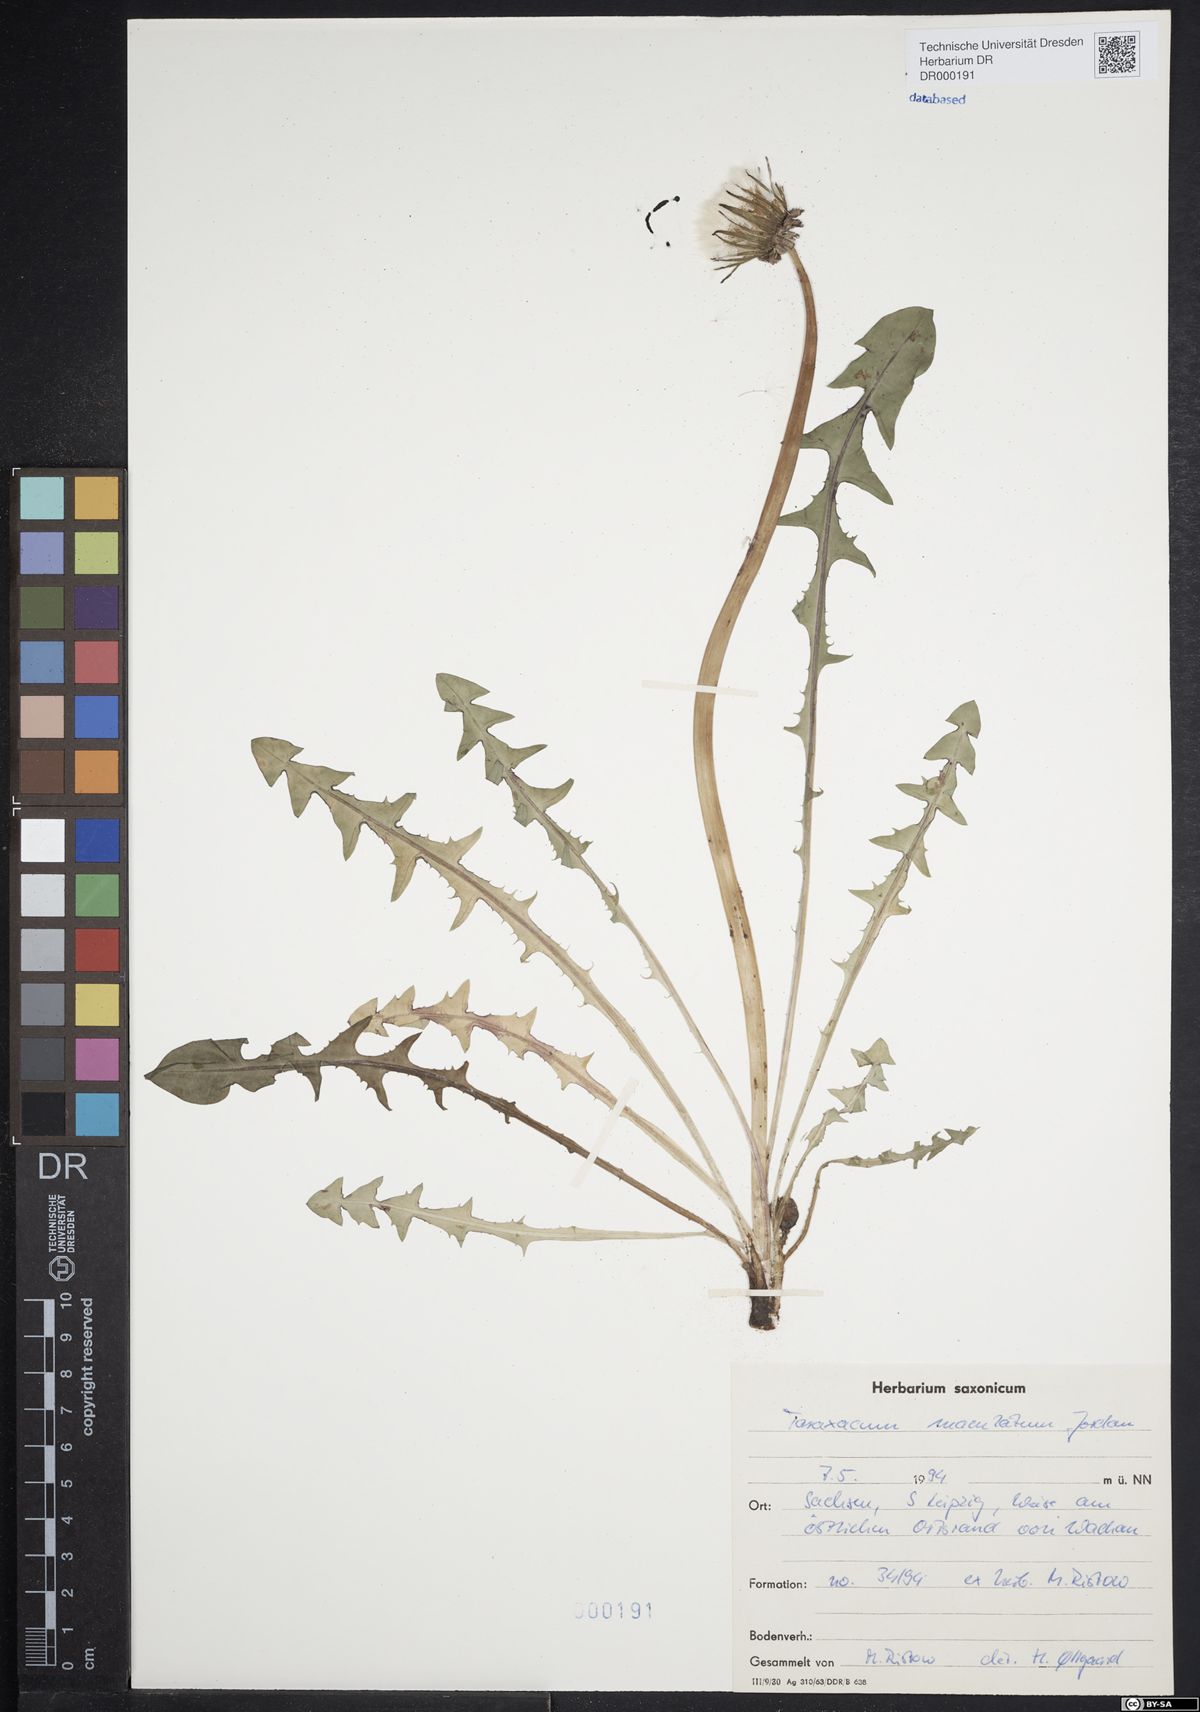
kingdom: Plantae
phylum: Tracheophyta
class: Magnoliopsida
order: Asterales
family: Asteraceae
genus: Taraxacum
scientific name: Taraxacum maculatum
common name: Yellowish-green dandelion
